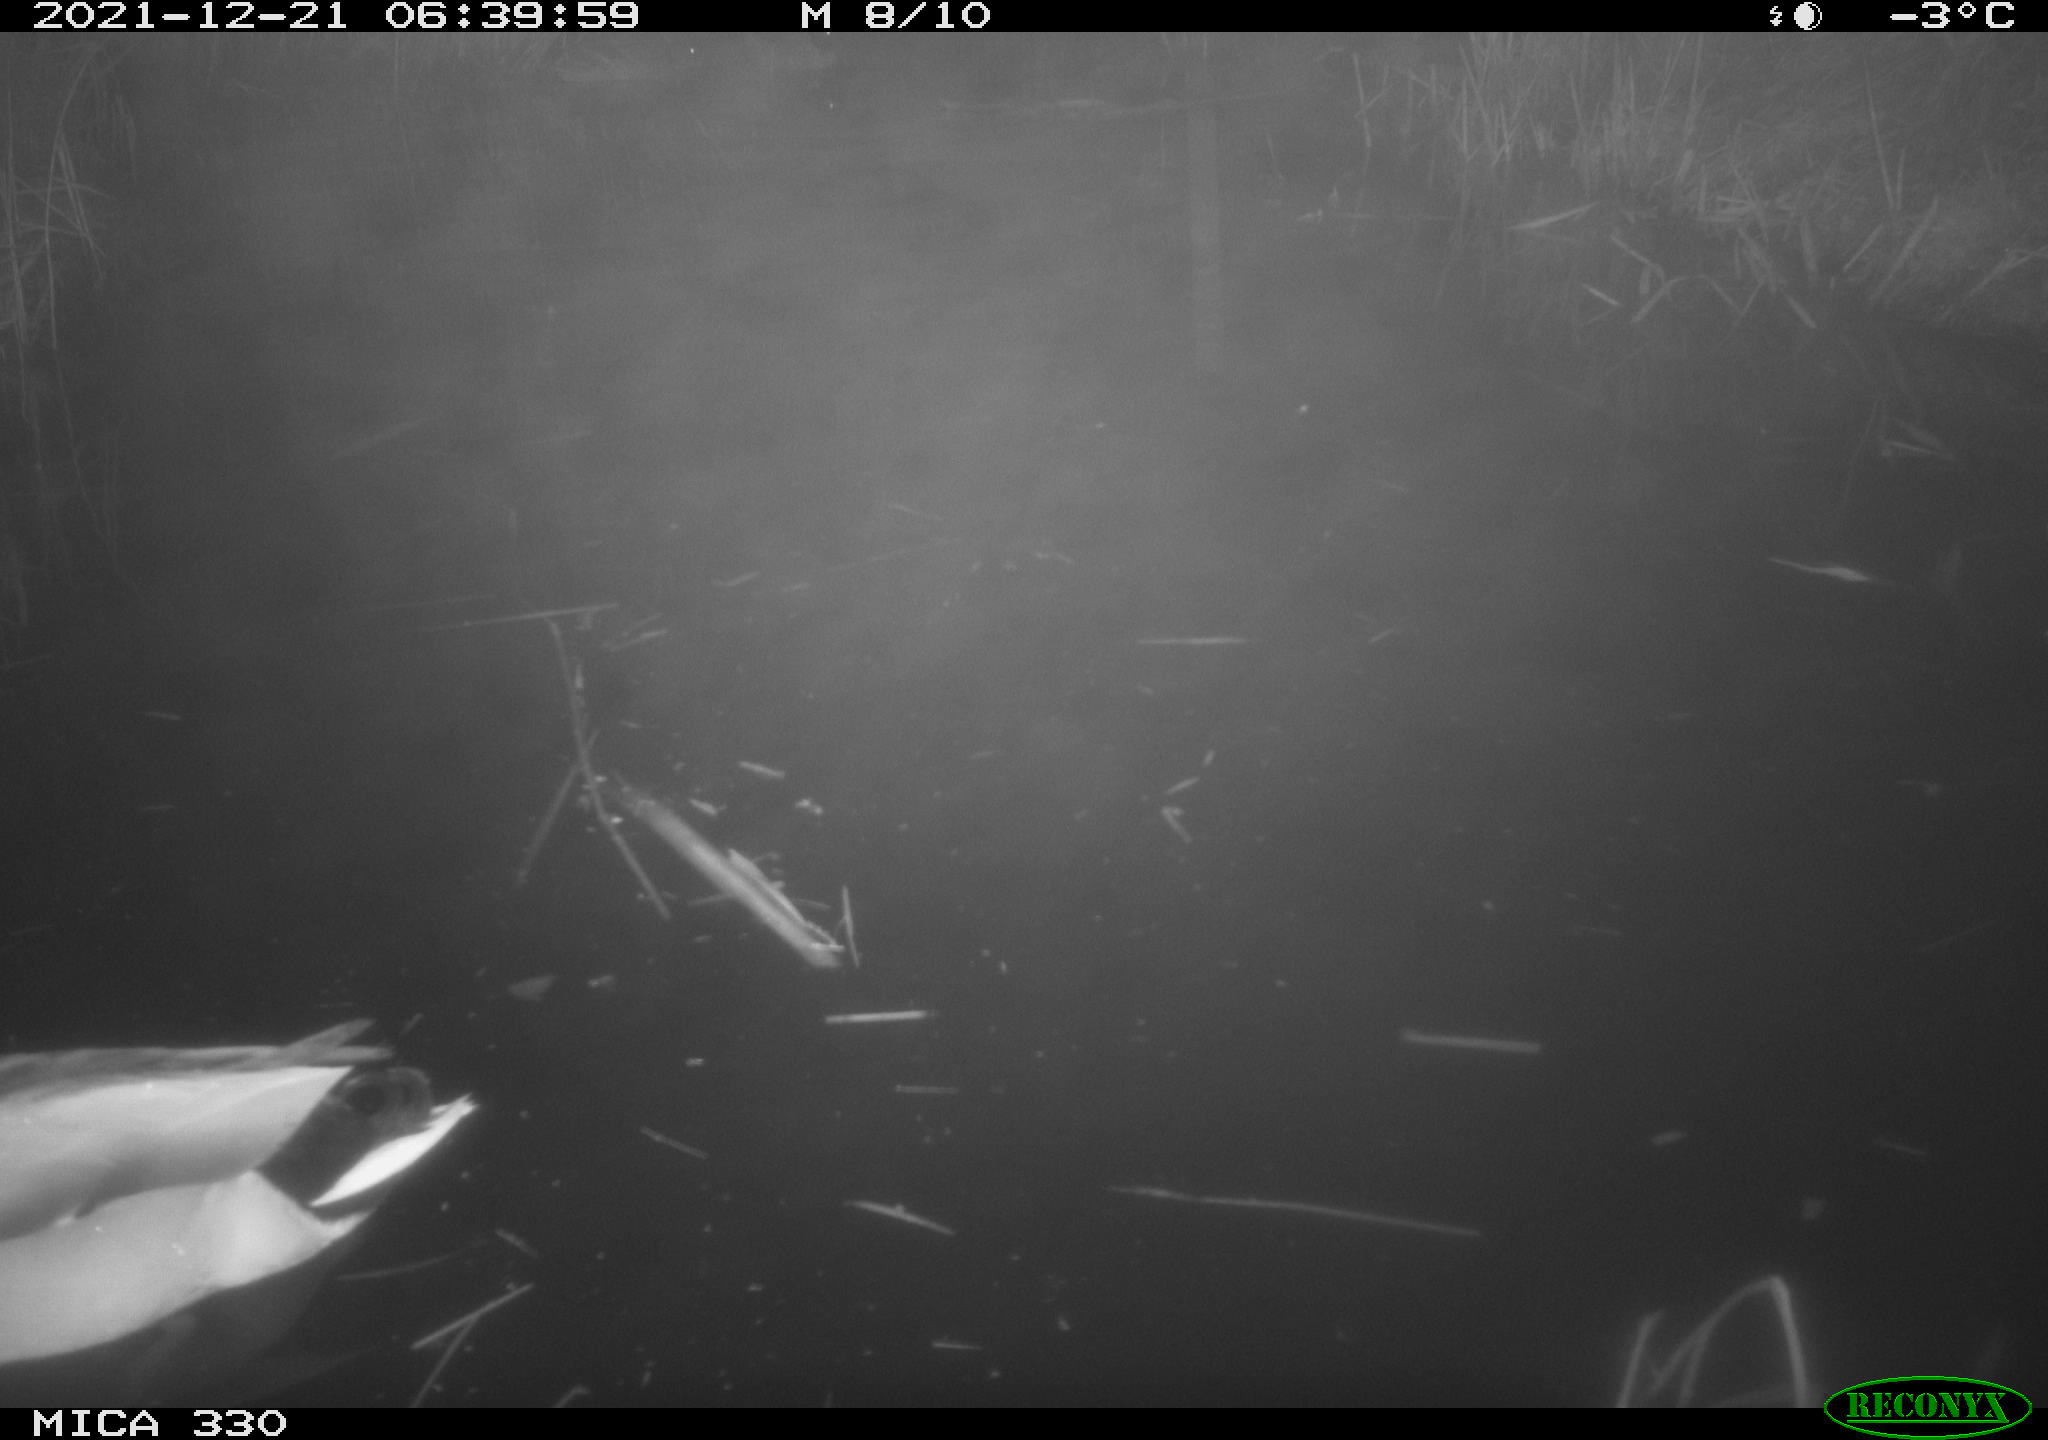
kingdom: Animalia
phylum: Chordata
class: Aves
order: Anseriformes
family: Anatidae
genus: Anas
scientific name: Anas platyrhynchos
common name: Mallard
